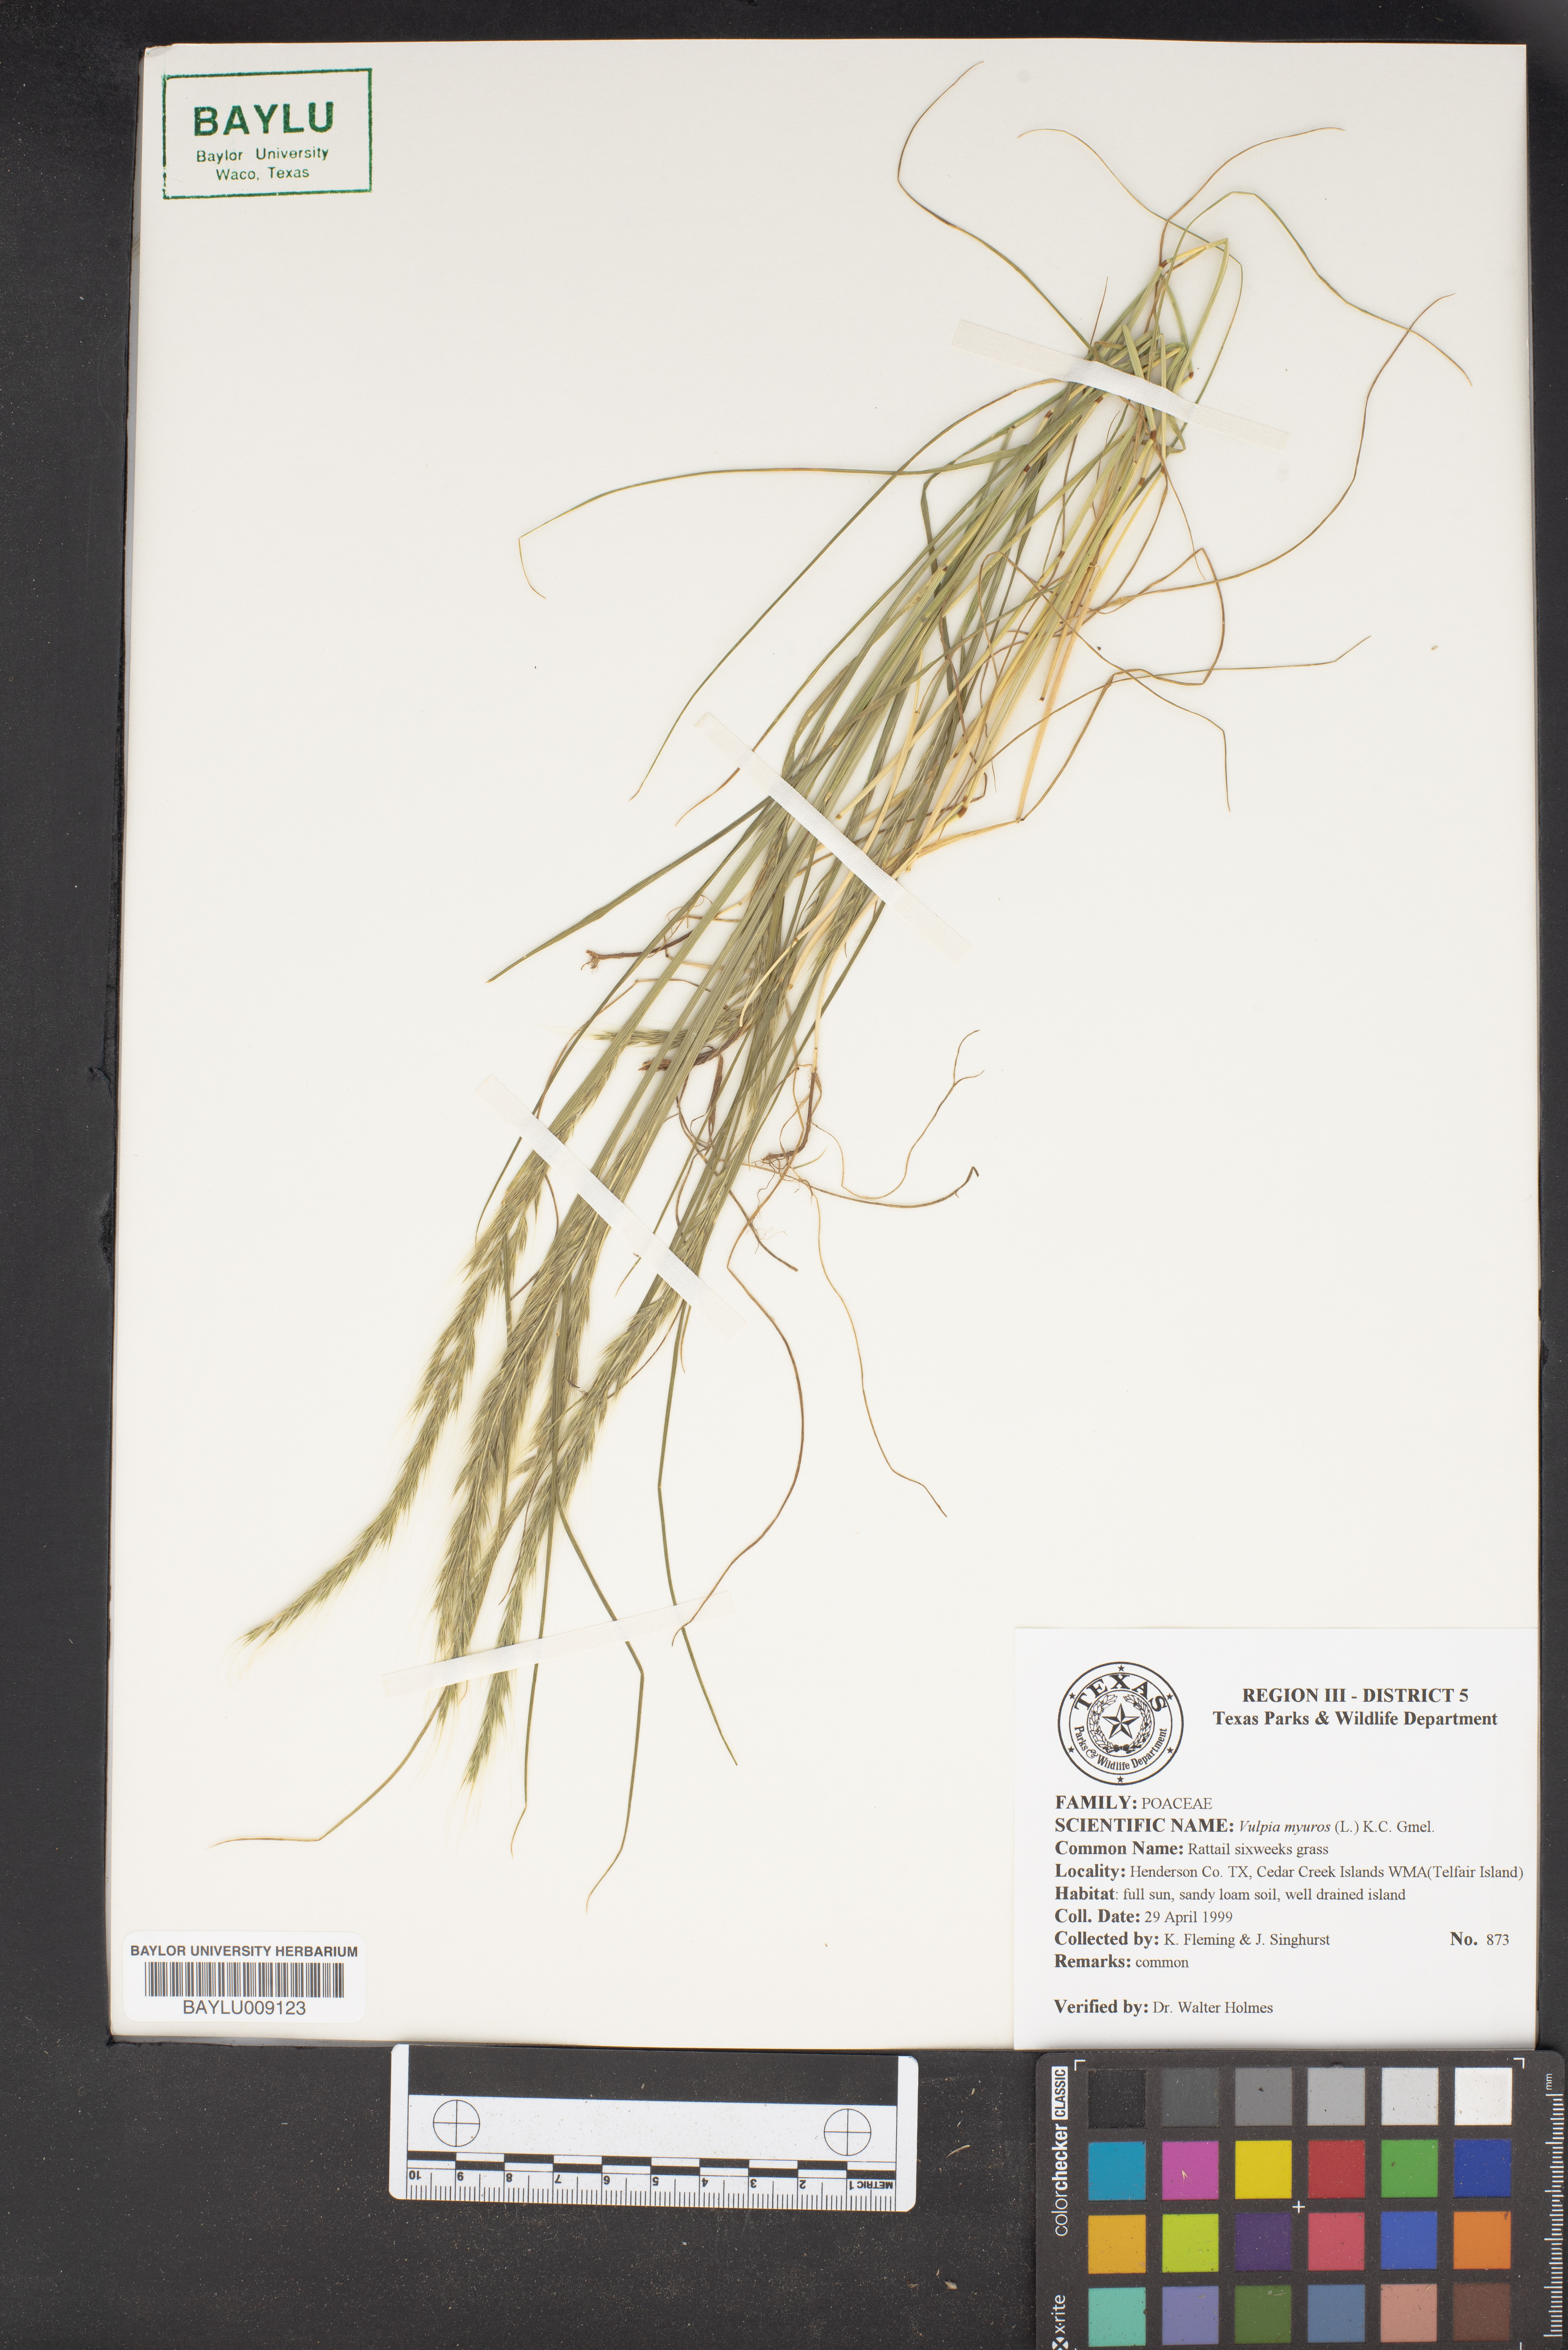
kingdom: Plantae
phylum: Tracheophyta
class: Liliopsida
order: Poales
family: Poaceae
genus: Festuca
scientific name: Festuca myuros
